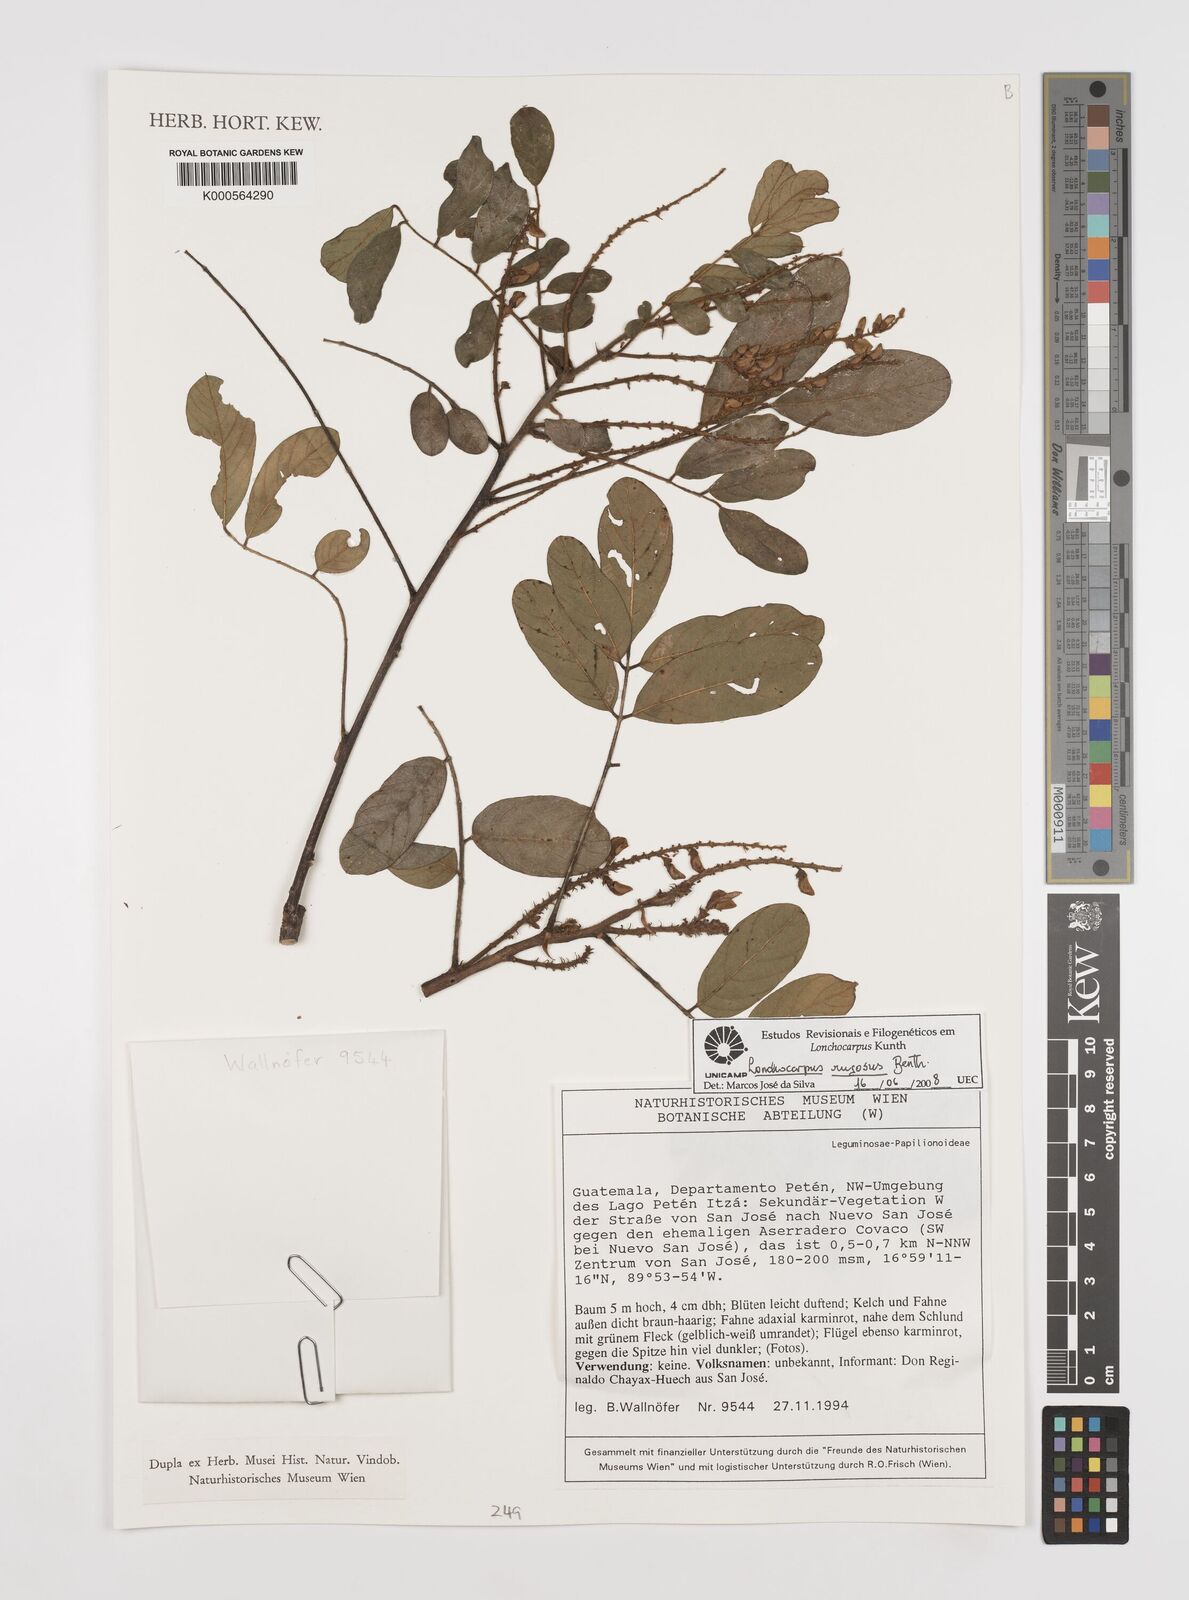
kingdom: Plantae
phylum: Tracheophyta
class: Magnoliopsida
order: Fabales
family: Fabaceae
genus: Lonchocarpus
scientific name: Lonchocarpus rugosus
